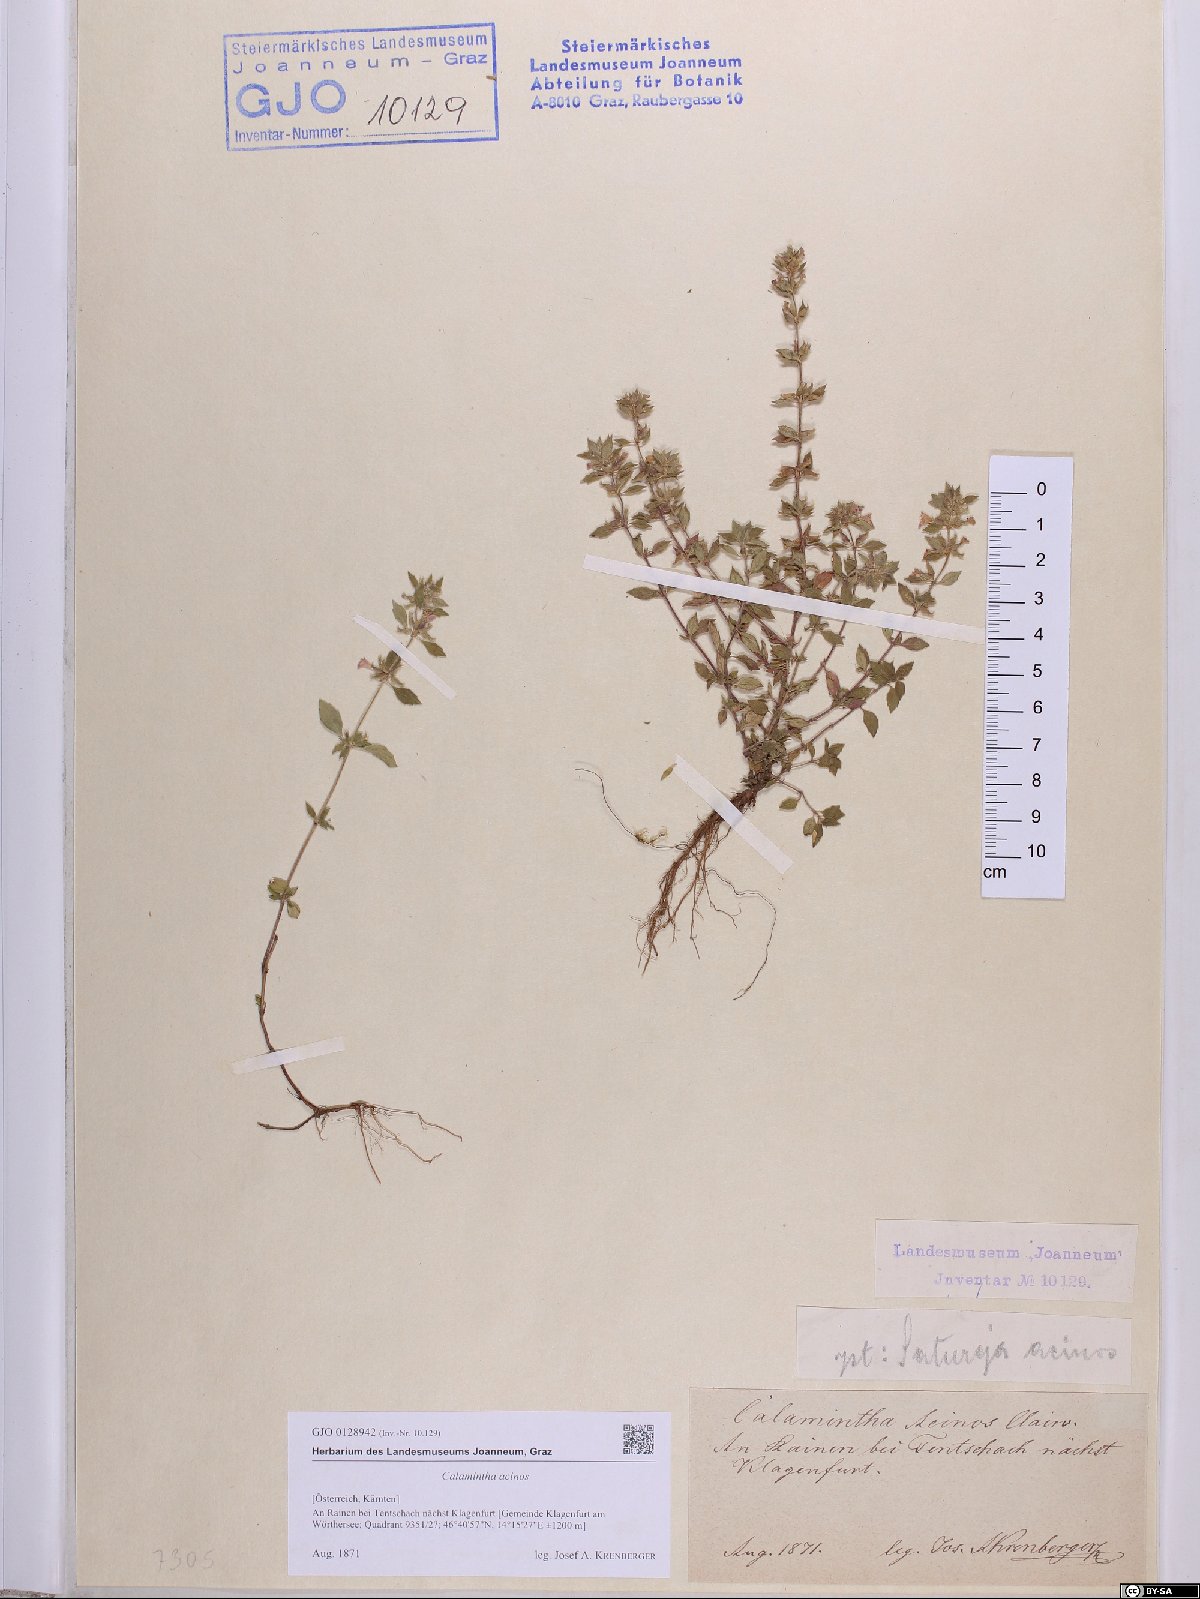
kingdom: Plantae
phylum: Tracheophyta
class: Magnoliopsida
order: Lamiales
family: Lamiaceae
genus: Clinopodium
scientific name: Clinopodium acinos
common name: Basil thyme
